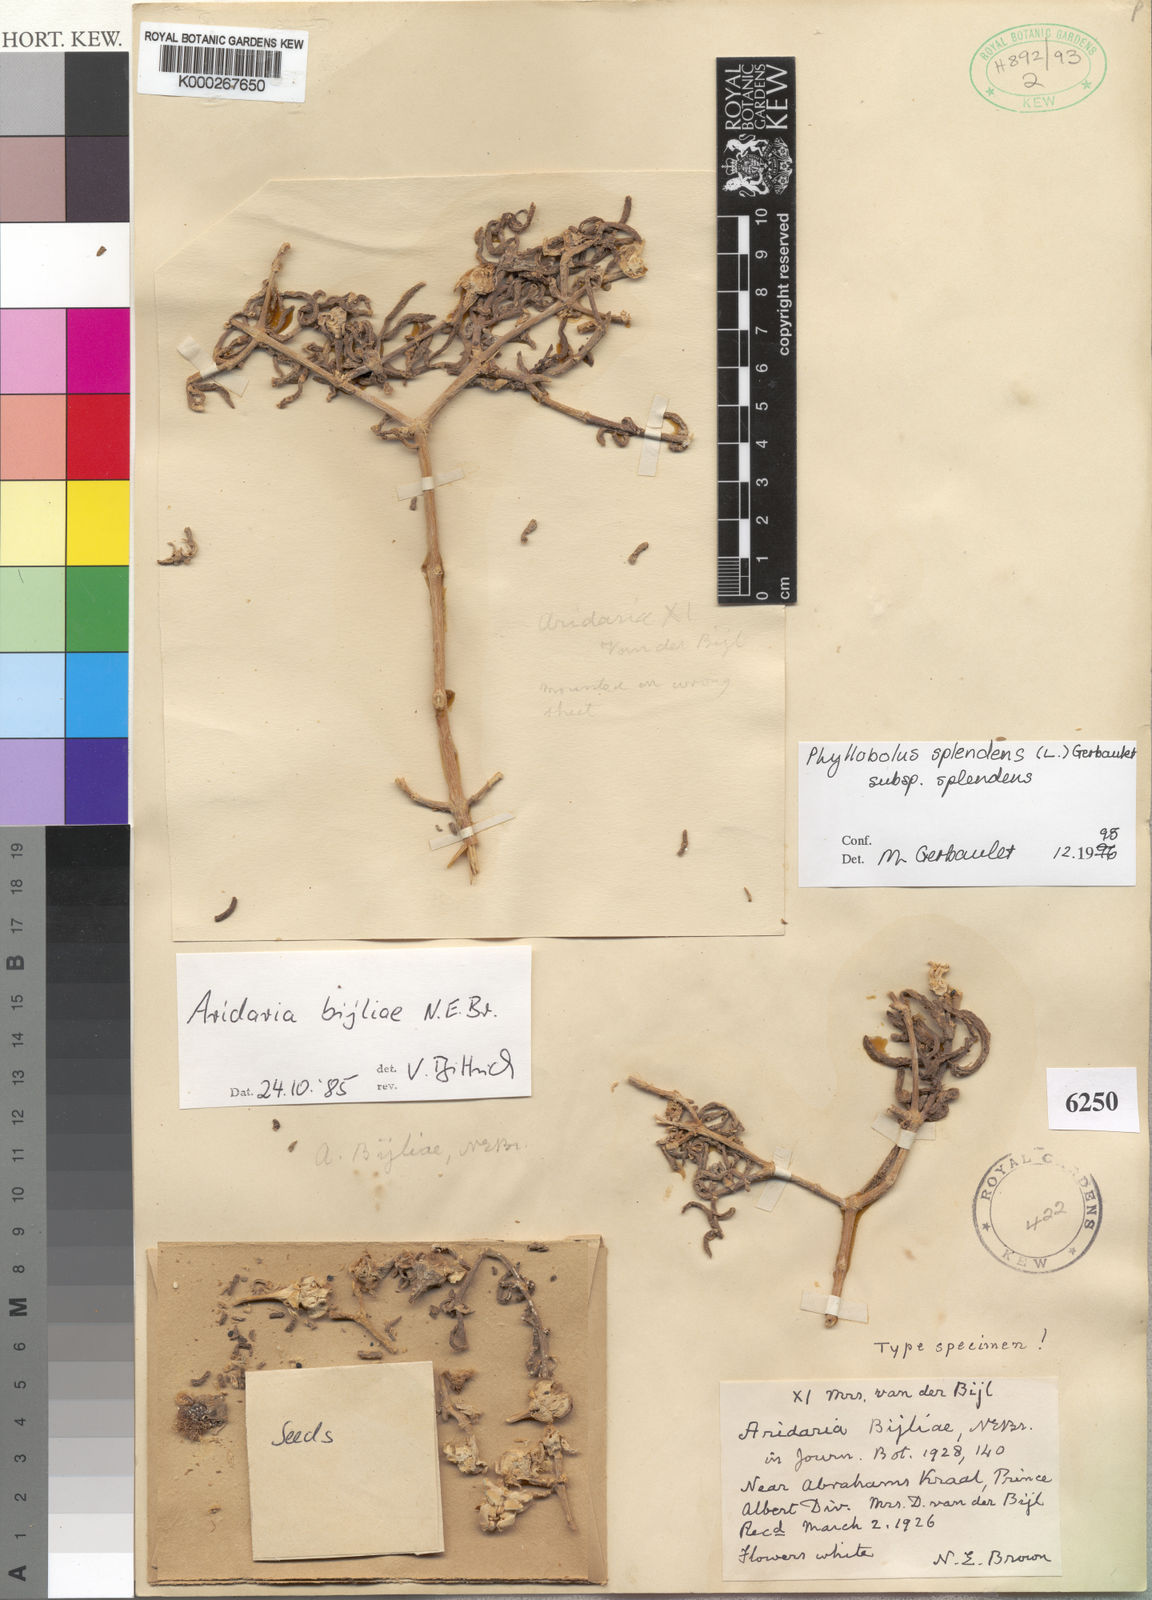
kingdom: Plantae
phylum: Tracheophyta
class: Magnoliopsida
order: Caryophyllales
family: Aizoaceae
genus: Mesembryanthemum
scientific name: Mesembryanthemum splendens
